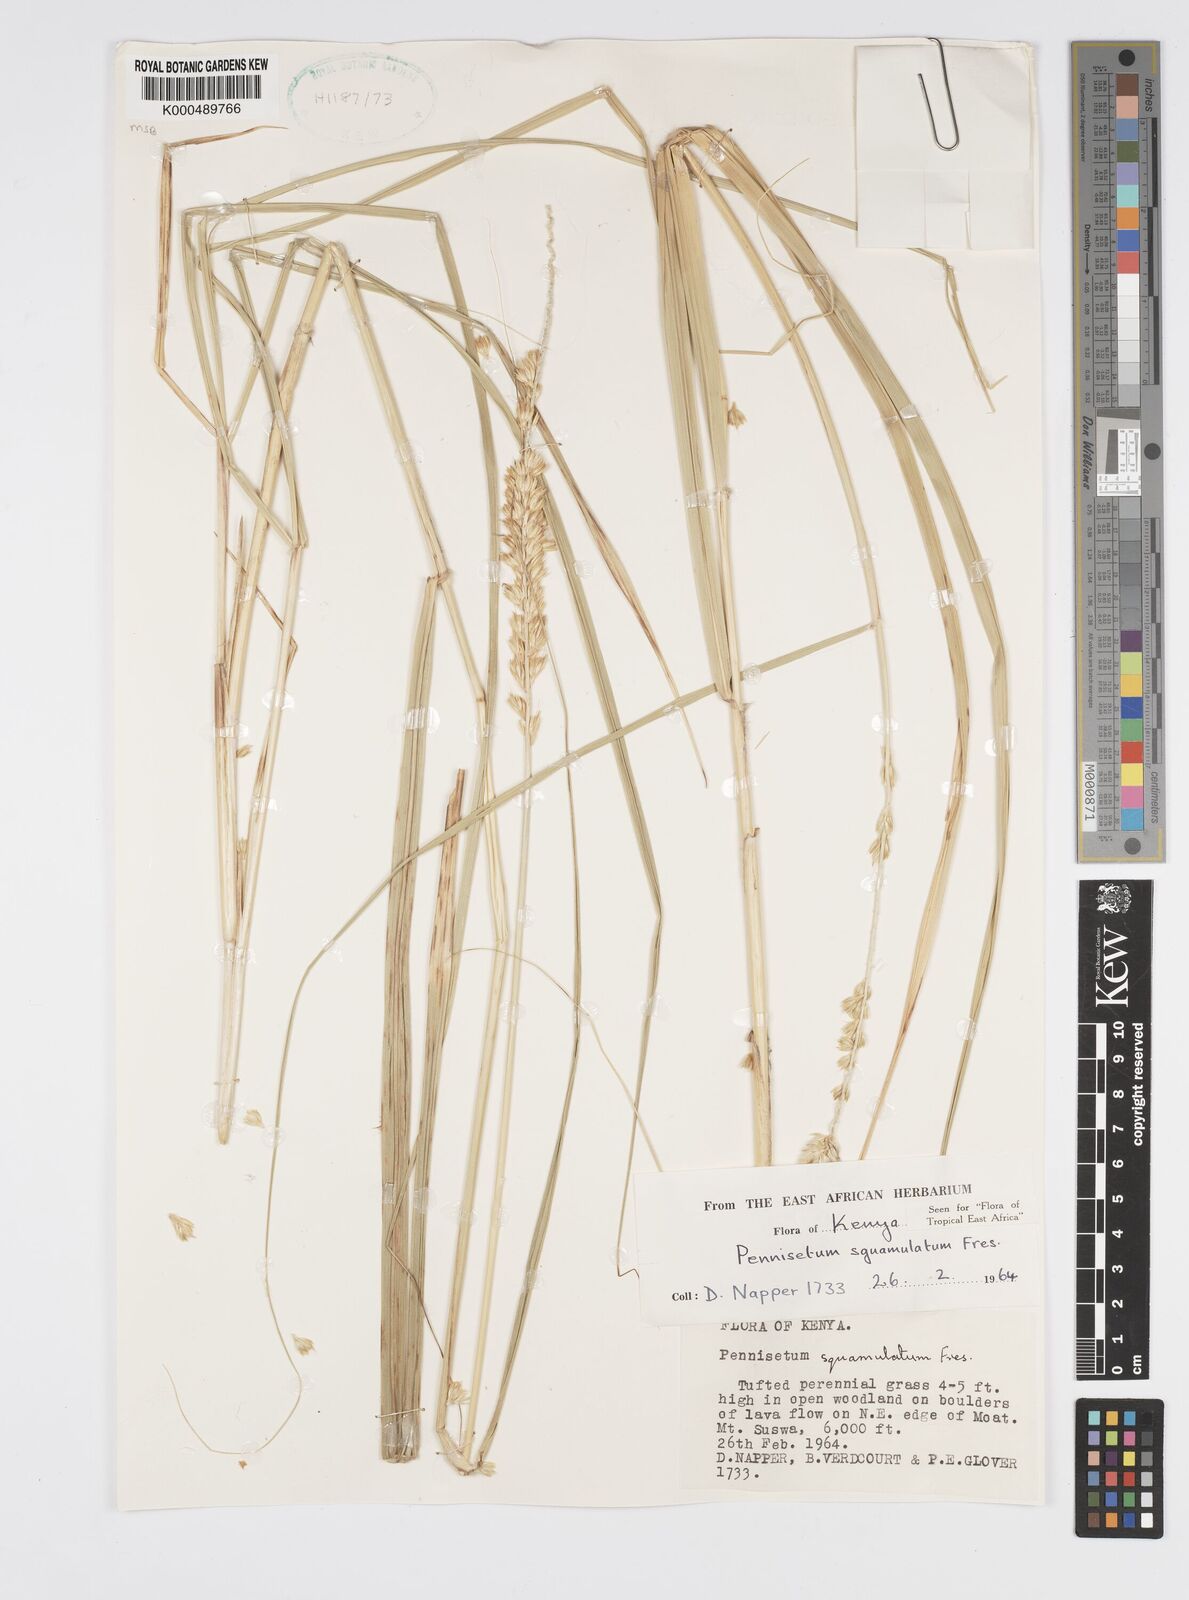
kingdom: Plantae
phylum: Tracheophyta
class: Liliopsida
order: Poales
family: Poaceae
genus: Cenchrus
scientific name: Cenchrus squamulatus
